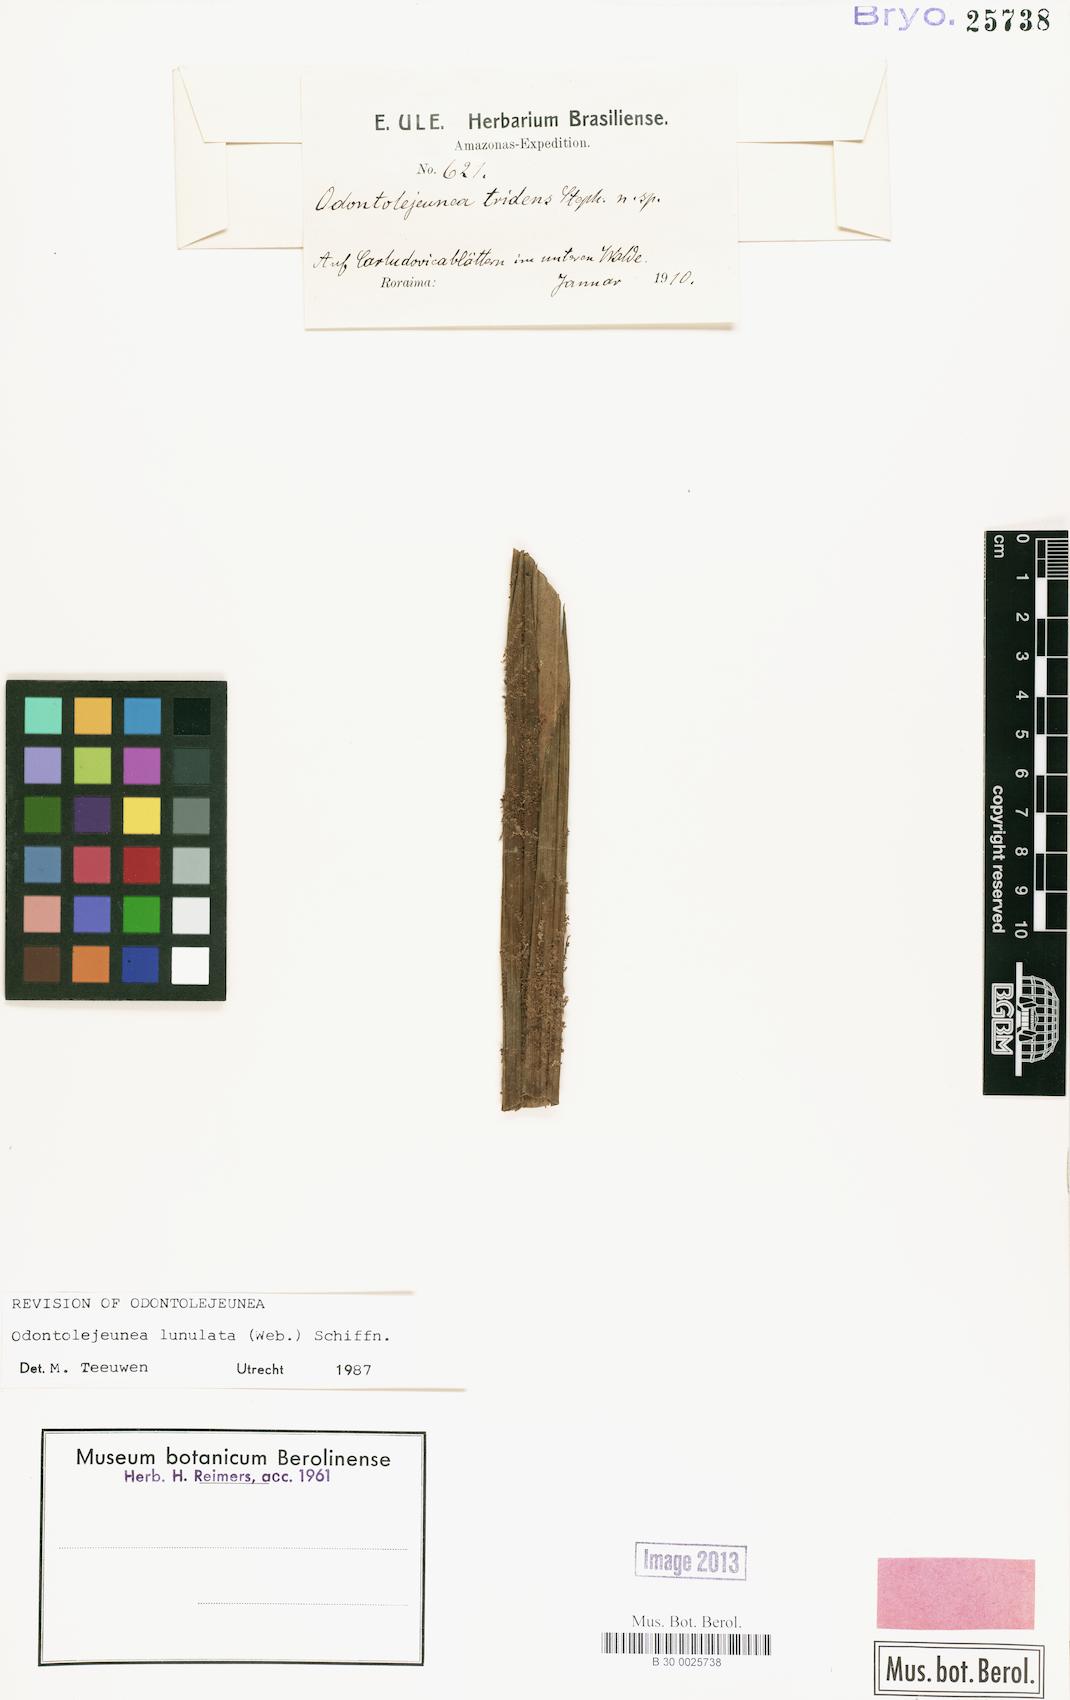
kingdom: Plantae
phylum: Marchantiophyta
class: Jungermanniopsida
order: Porellales
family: Lejeuneaceae
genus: Odontolejeunea
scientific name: Odontolejeunea lunulata
